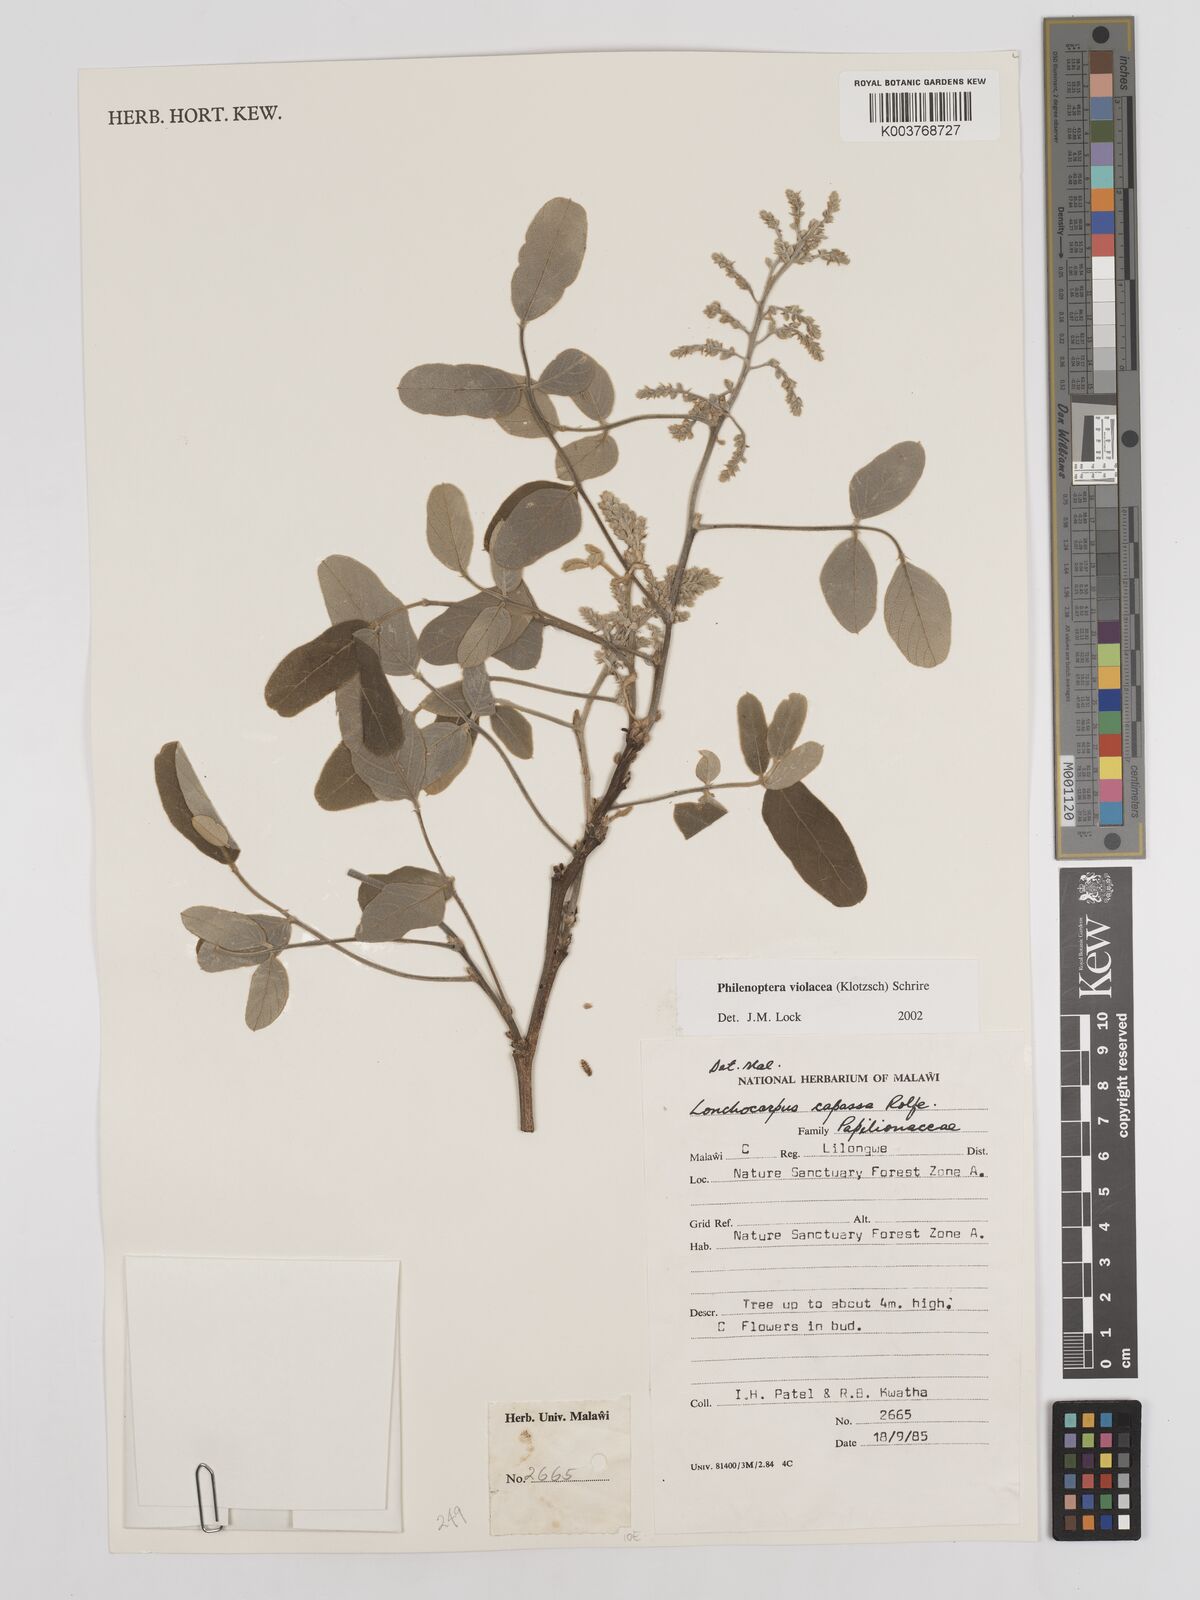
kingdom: Plantae
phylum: Tracheophyta
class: Magnoliopsida
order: Fabales
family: Fabaceae
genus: Philenoptera
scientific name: Philenoptera violacea
